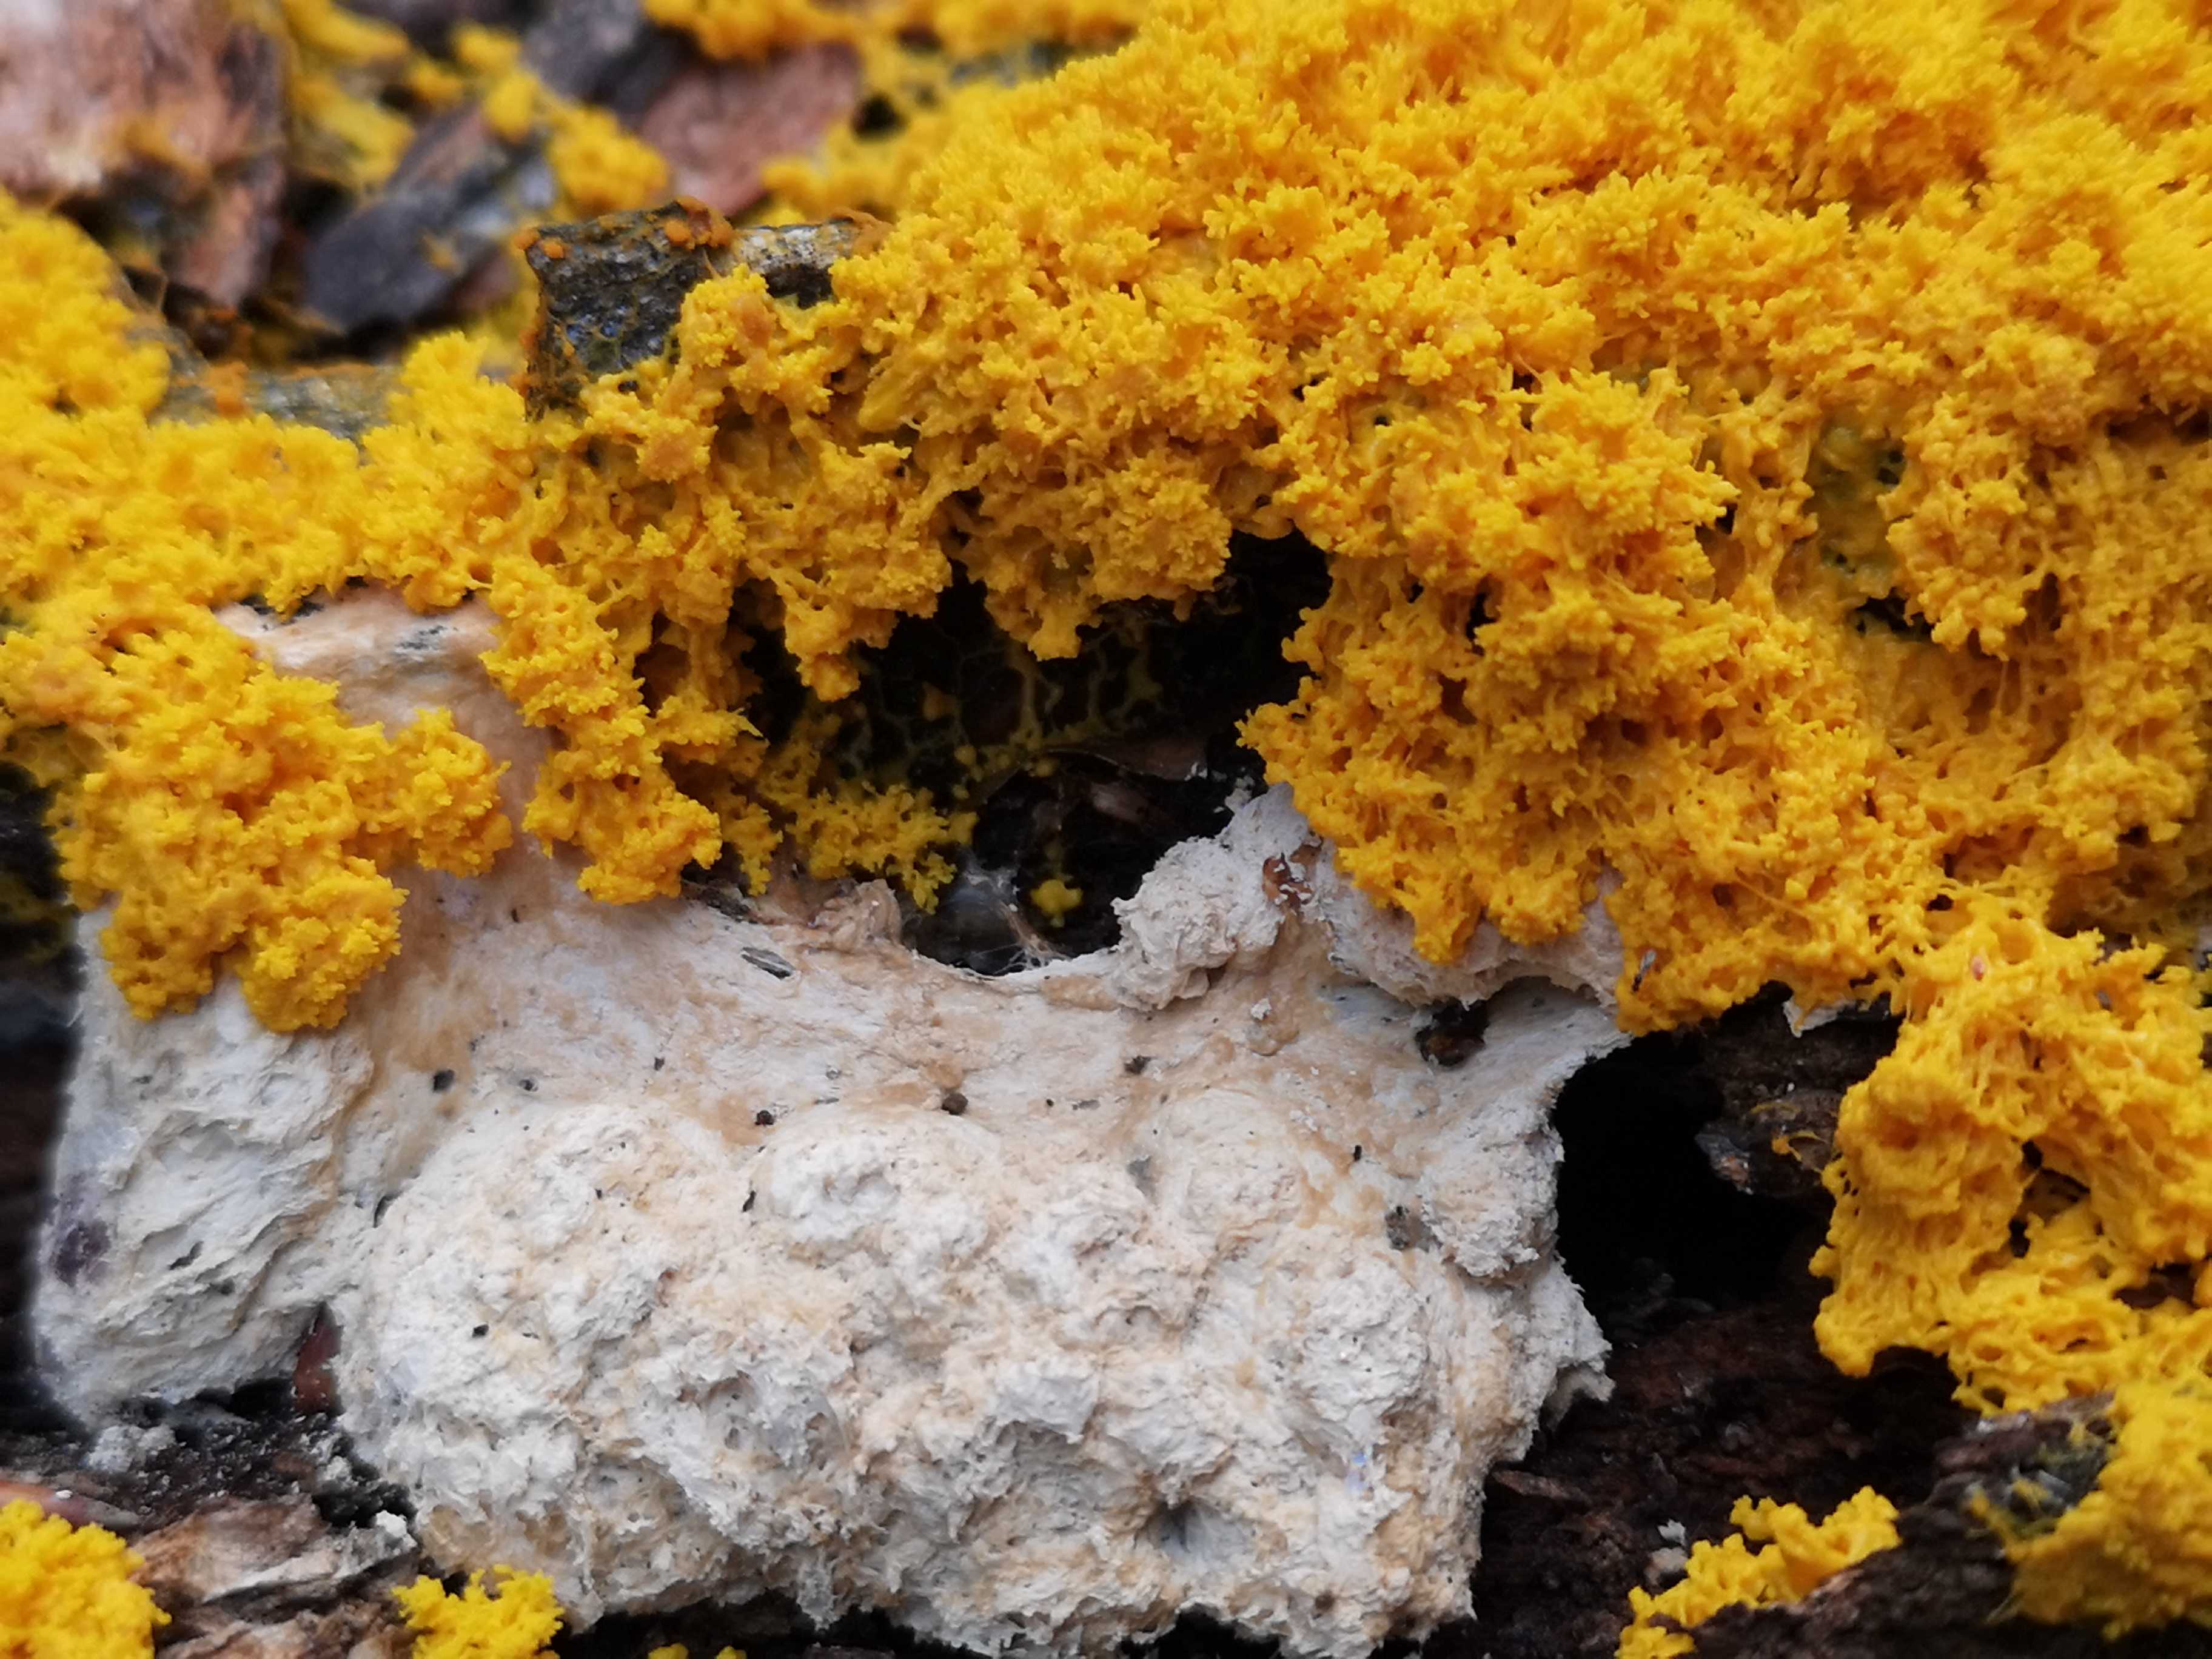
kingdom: Protozoa
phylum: Mycetozoa
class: Myxomycetes
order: Physarales
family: Physaraceae
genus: Fuligo
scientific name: Fuligo septica
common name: gul troldsmør
